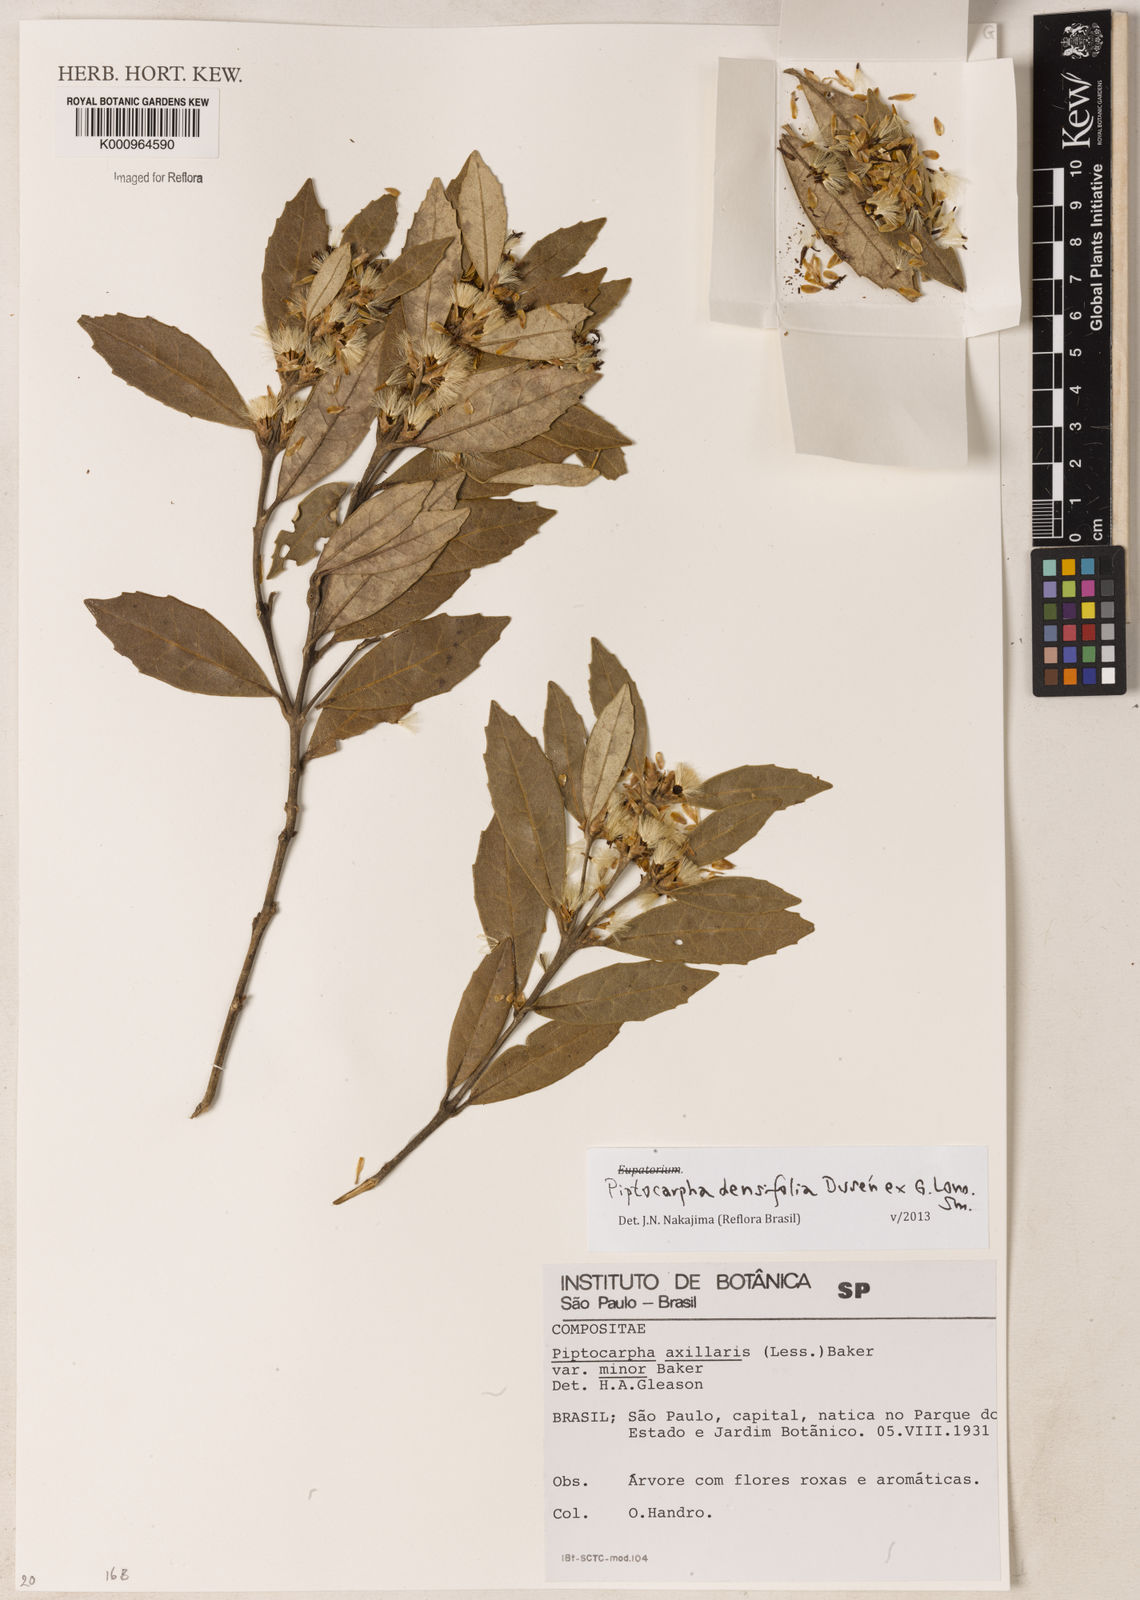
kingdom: Plantae
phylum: Tracheophyta
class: Magnoliopsida
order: Asterales
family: Asteraceae
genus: Piptocarpha
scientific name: Piptocarpha
